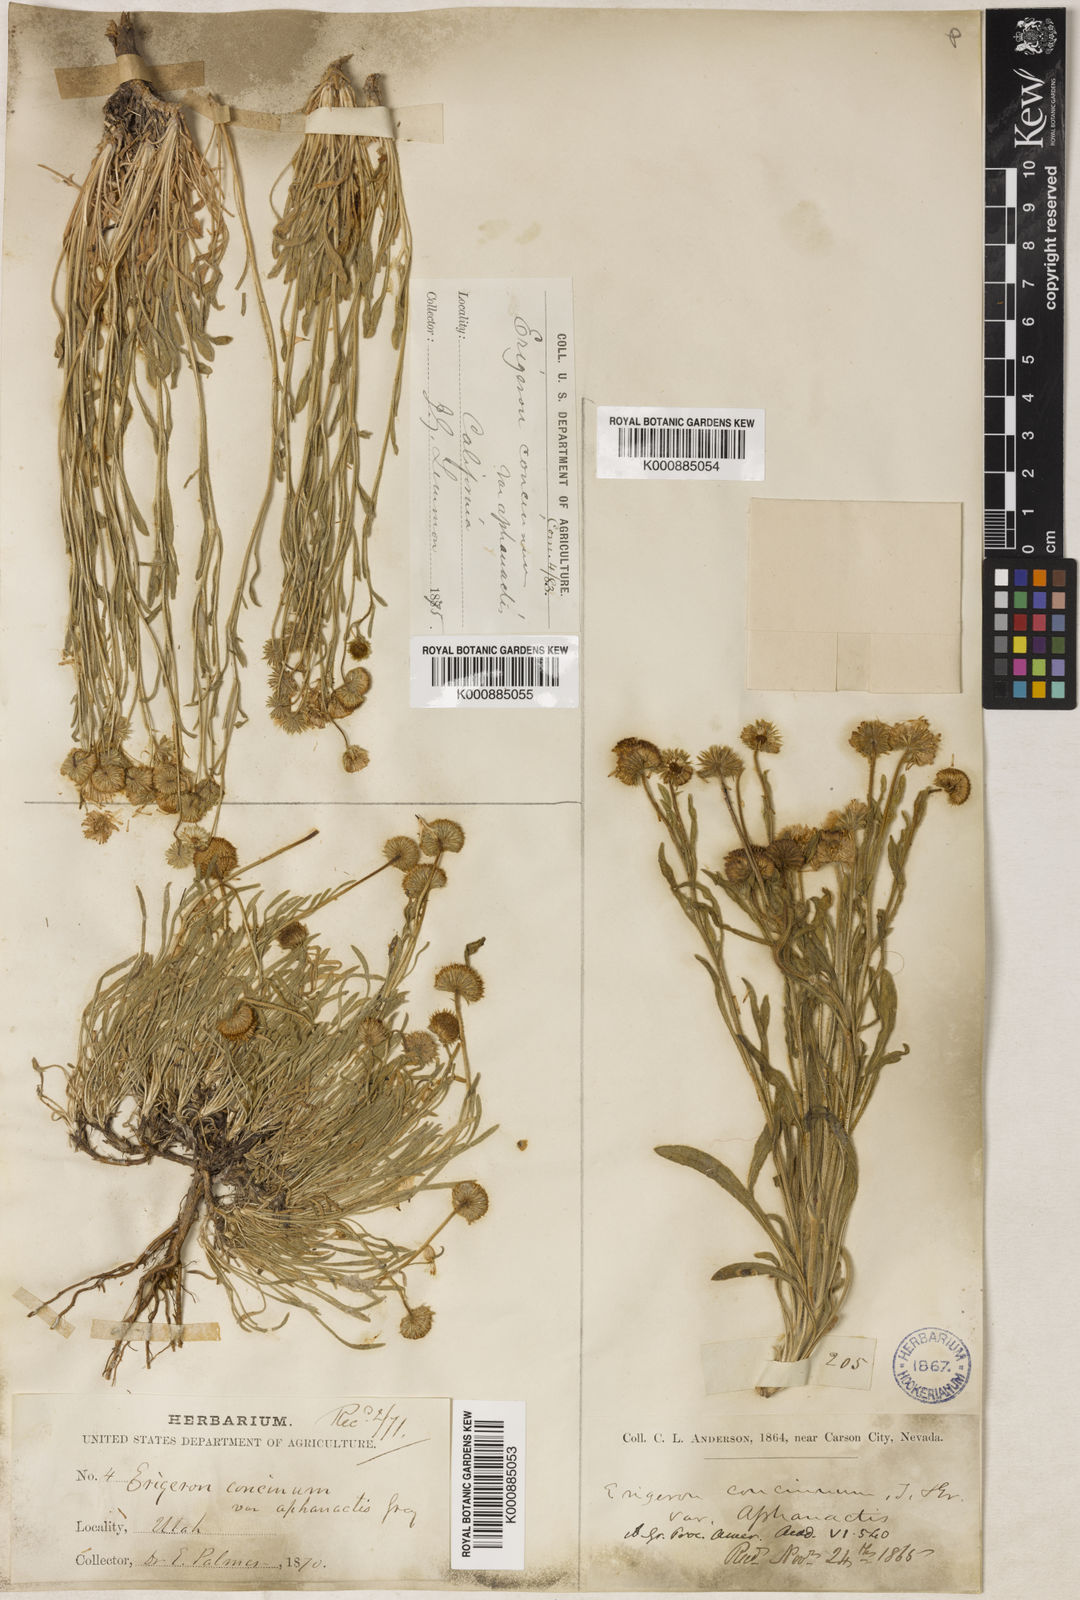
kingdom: Plantae
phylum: Tracheophyta
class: Magnoliopsida
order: Asterales
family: Asteraceae
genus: Erigeron
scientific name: Erigeron aphanactis
